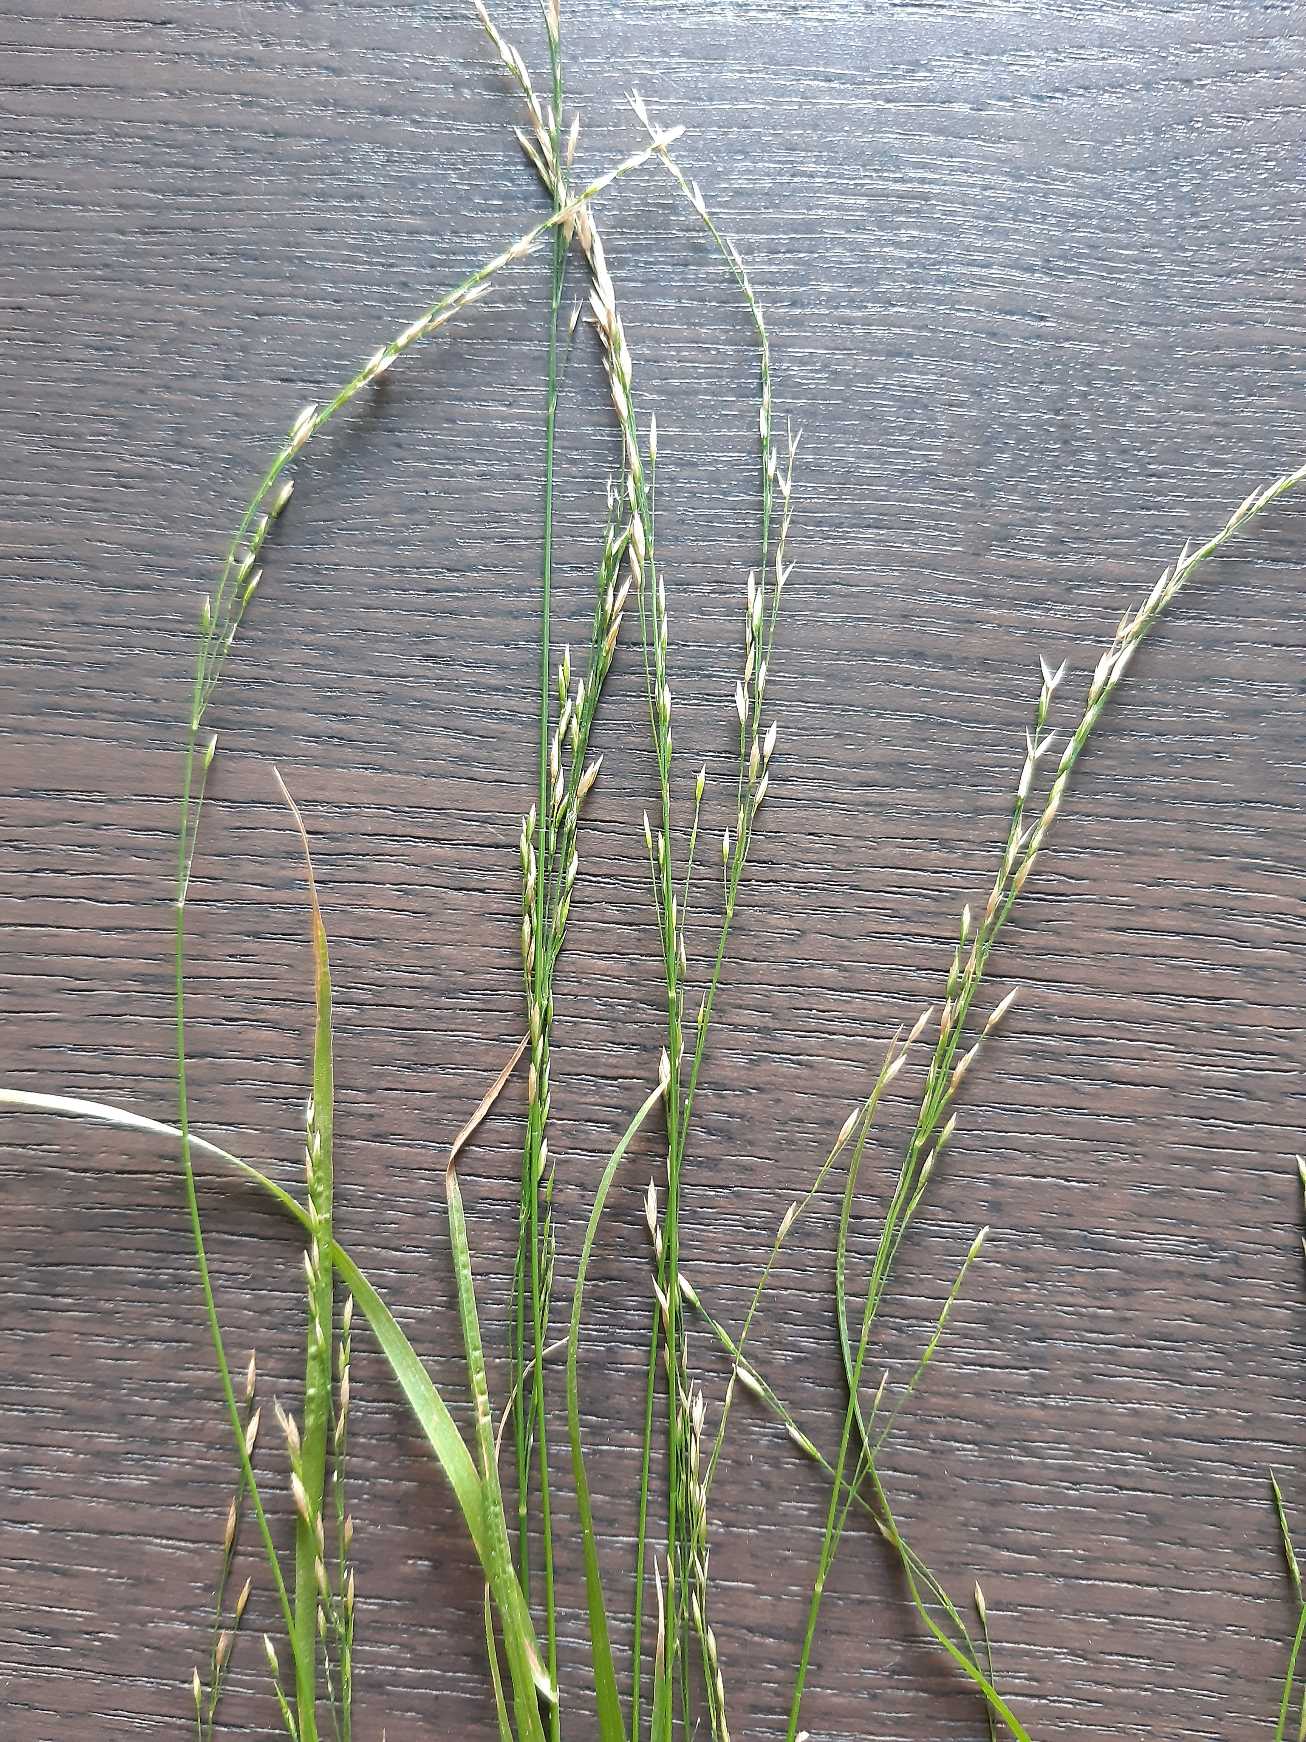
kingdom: Plantae
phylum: Tracheophyta
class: Liliopsida
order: Poales
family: Poaceae
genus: Poa
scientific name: Poa nemoralis
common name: Lund-rapgræs
